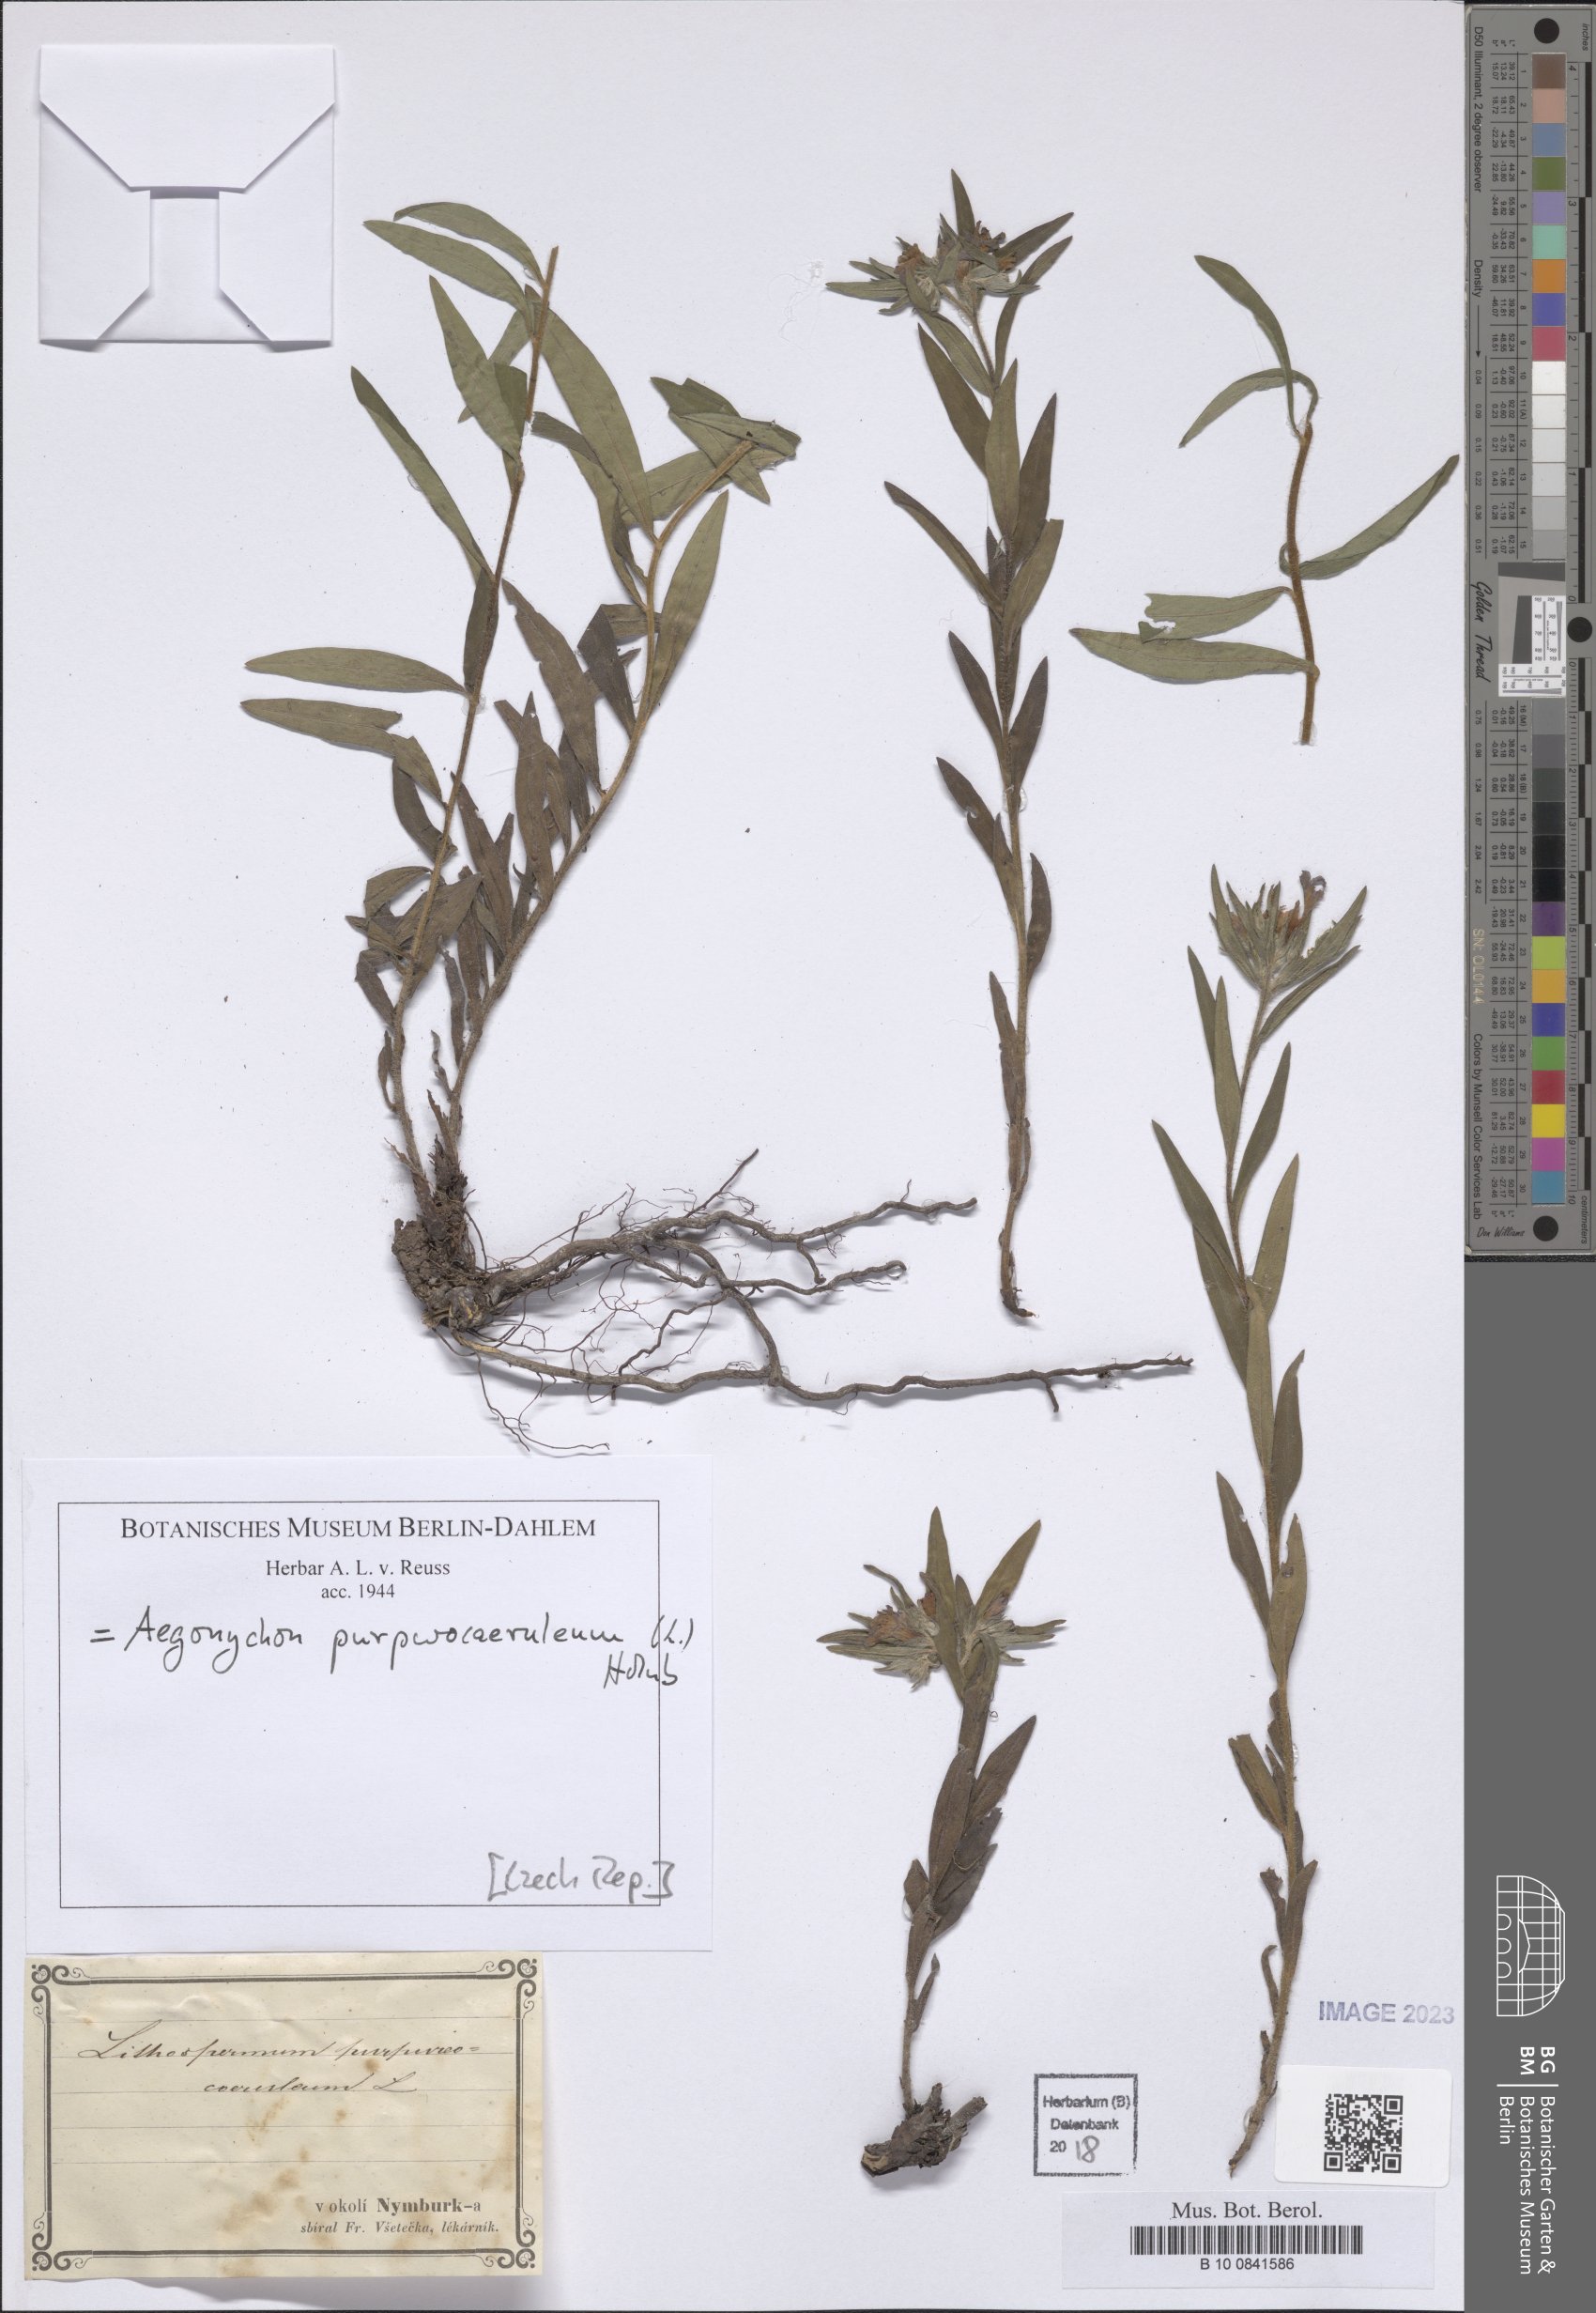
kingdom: Plantae
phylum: Tracheophyta
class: Magnoliopsida
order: Boraginales
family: Boraginaceae
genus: Aegonychon
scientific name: Aegonychon purpurocaeruleum
